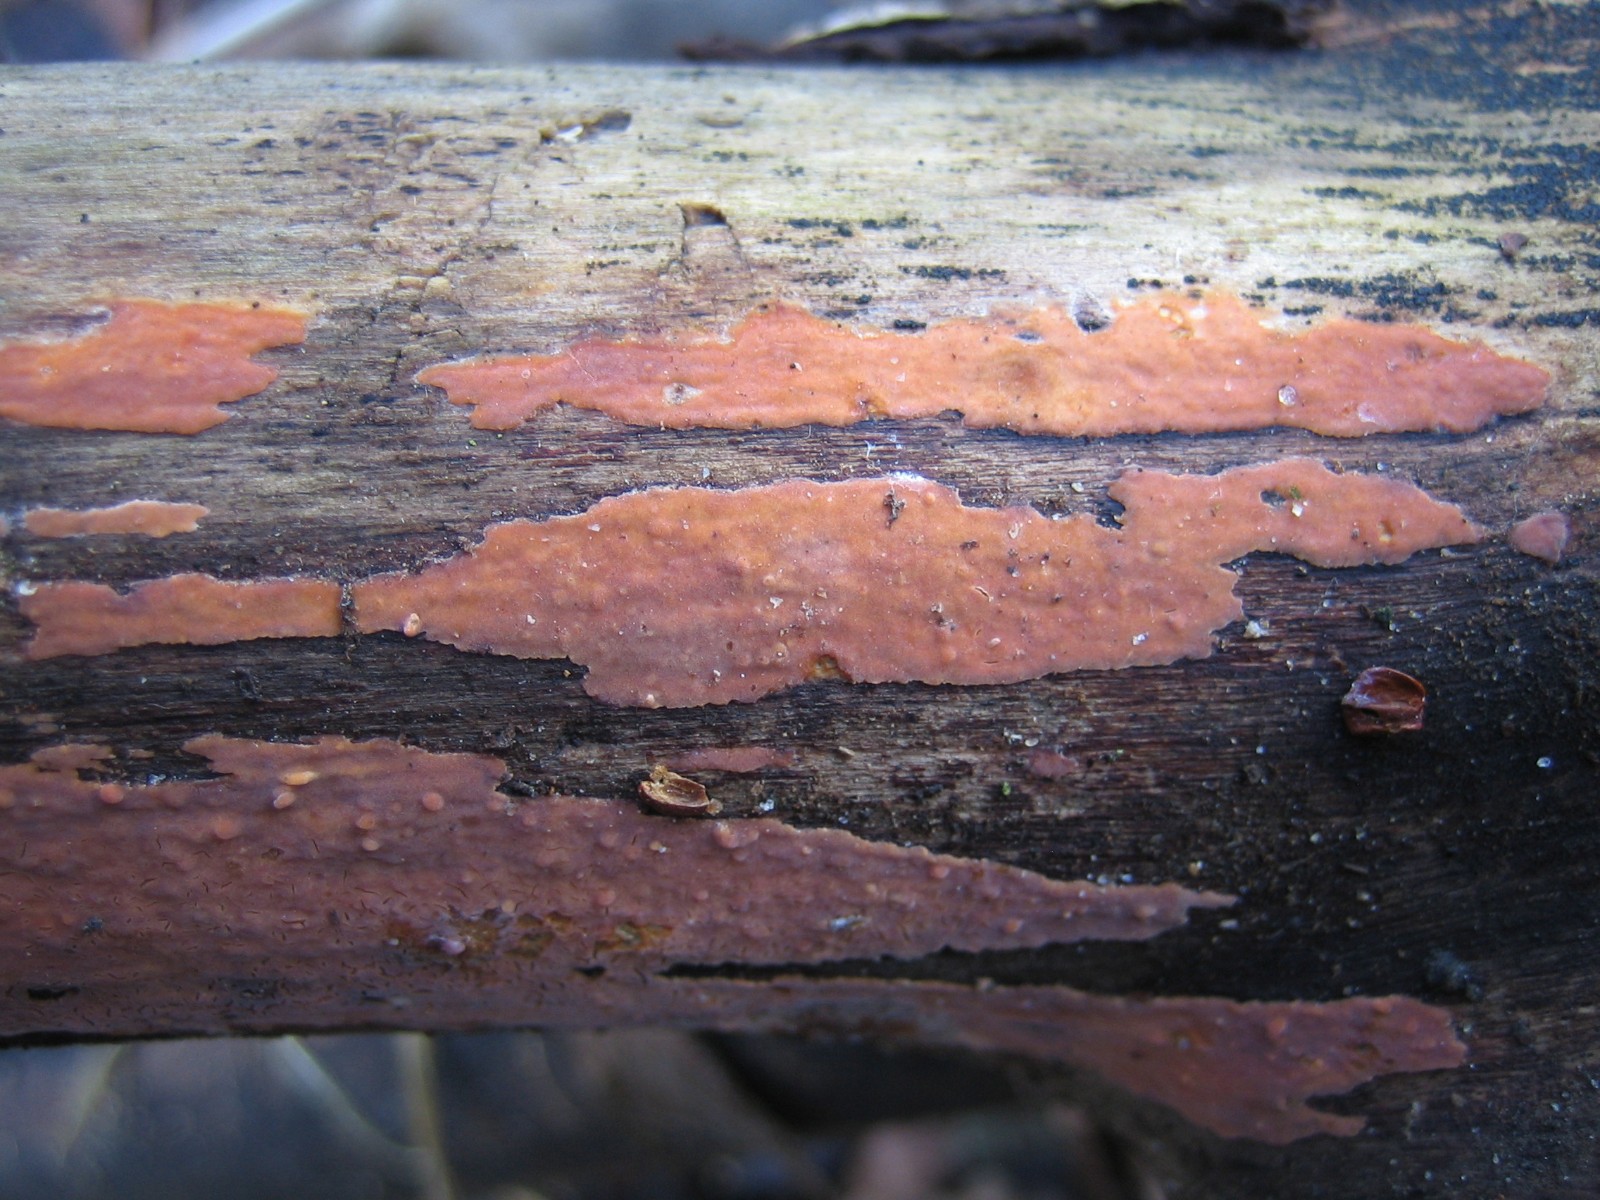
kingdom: Fungi
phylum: Basidiomycota
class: Agaricomycetes
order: Russulales
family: Peniophoraceae
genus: Peniophora
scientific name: Peniophora incarnata
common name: laksefarvet voksskind
